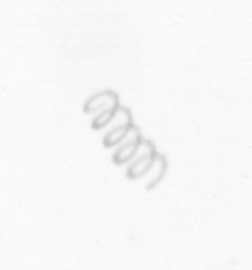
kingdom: Chromista
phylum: Ochrophyta
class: Bacillariophyceae
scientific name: Bacillariophyceae
